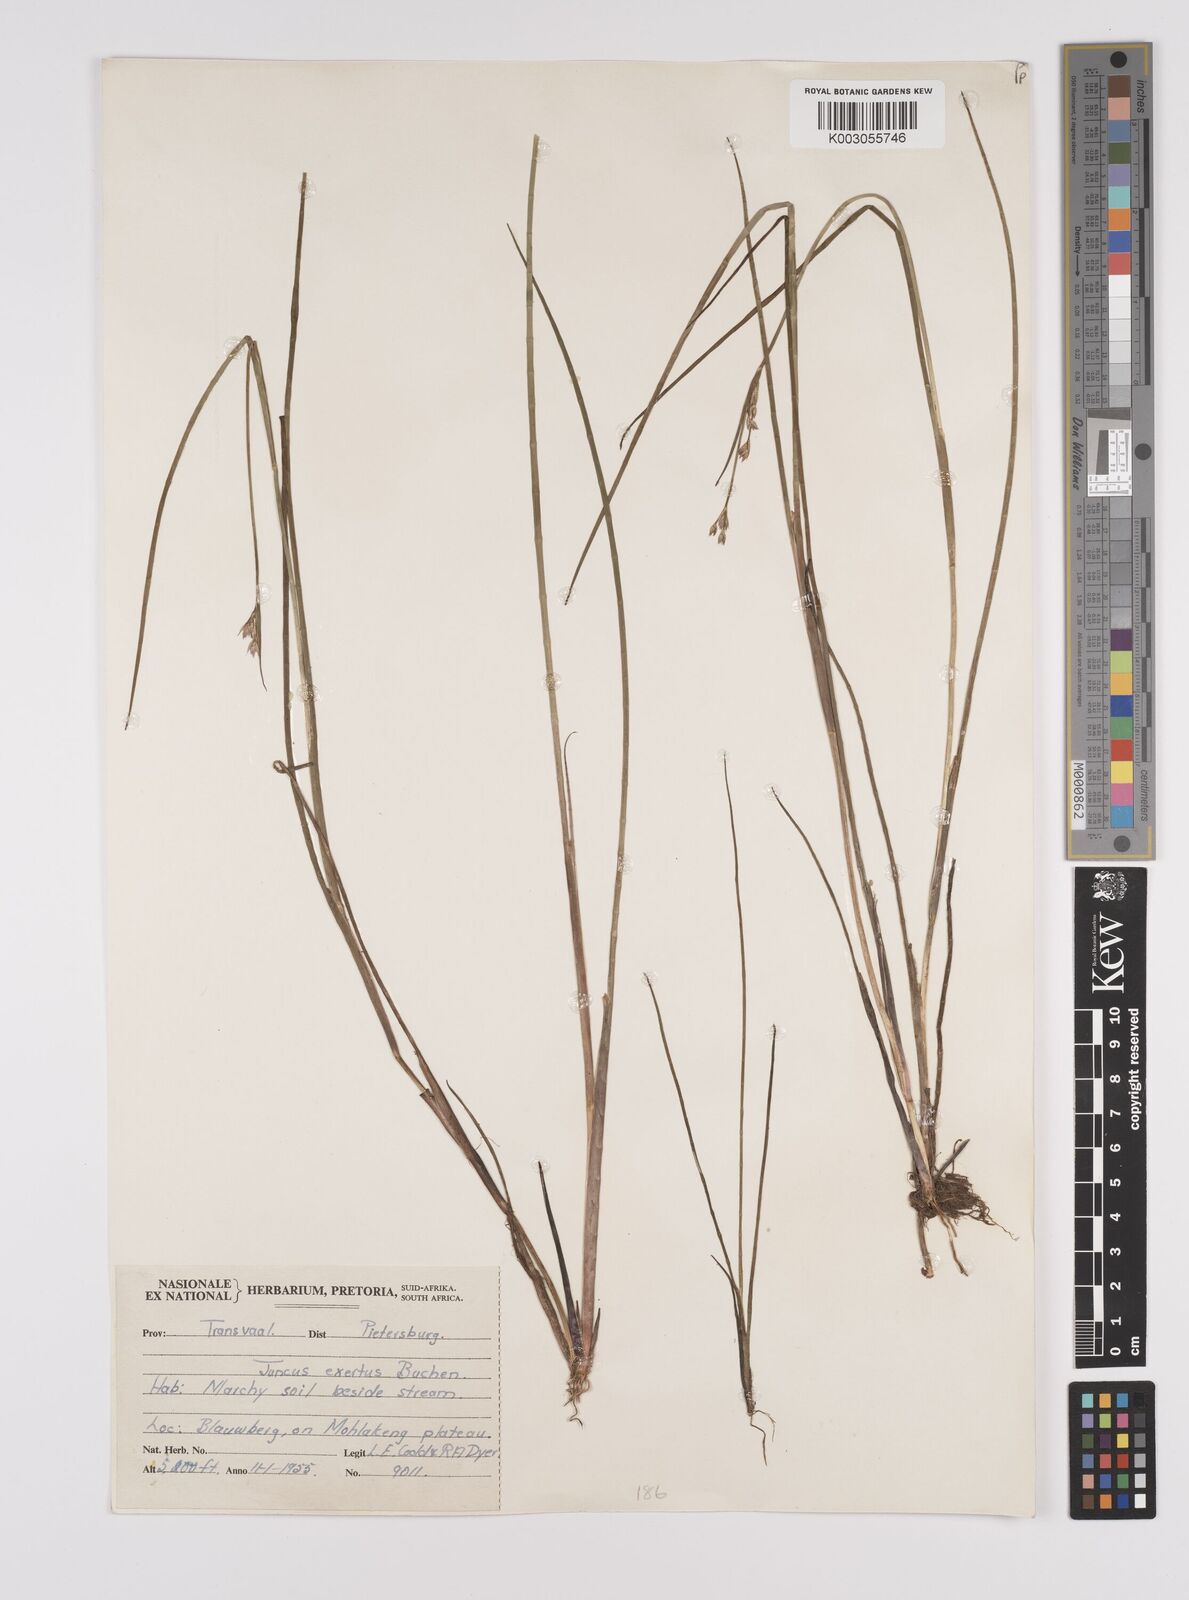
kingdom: Plantae
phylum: Tracheophyta
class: Liliopsida
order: Poales
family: Juncaceae
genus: Juncus
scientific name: Juncus exsertus
